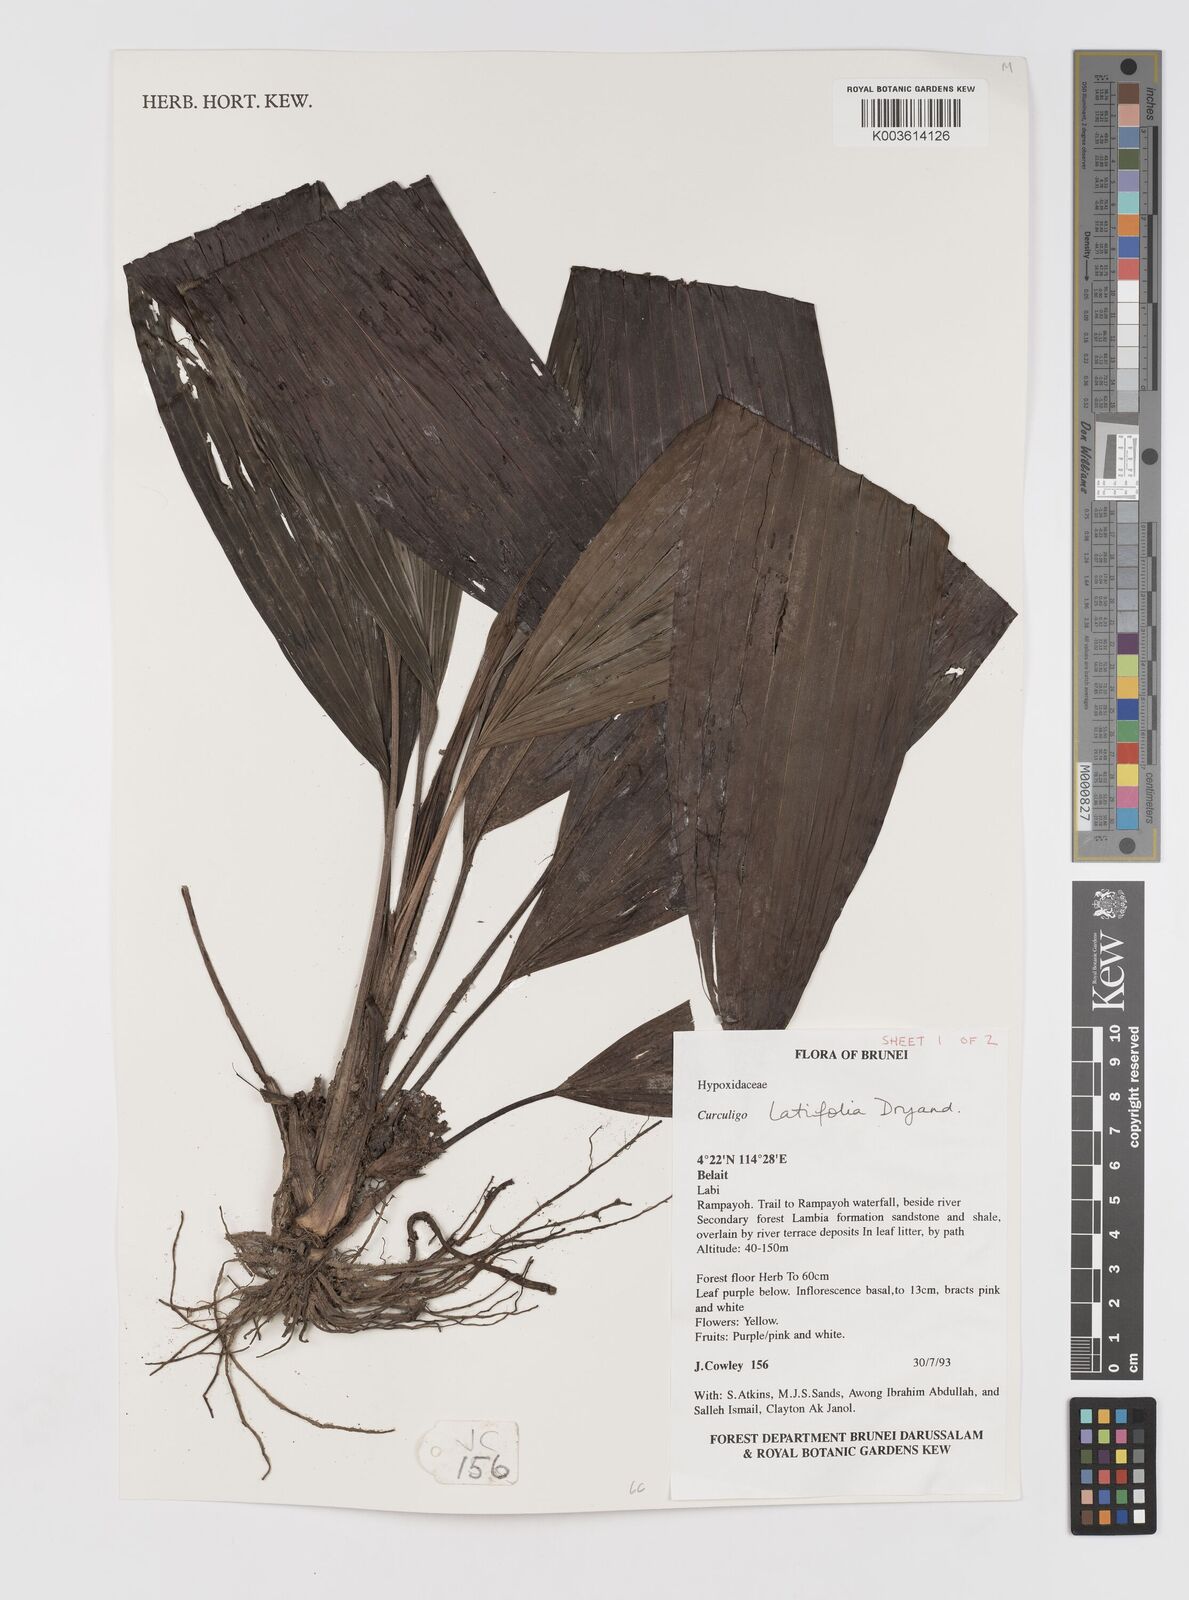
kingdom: Plantae
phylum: Tracheophyta
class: Liliopsida
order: Asparagales
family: Hypoxidaceae
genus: Curculigo
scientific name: Curculigo latifolia
